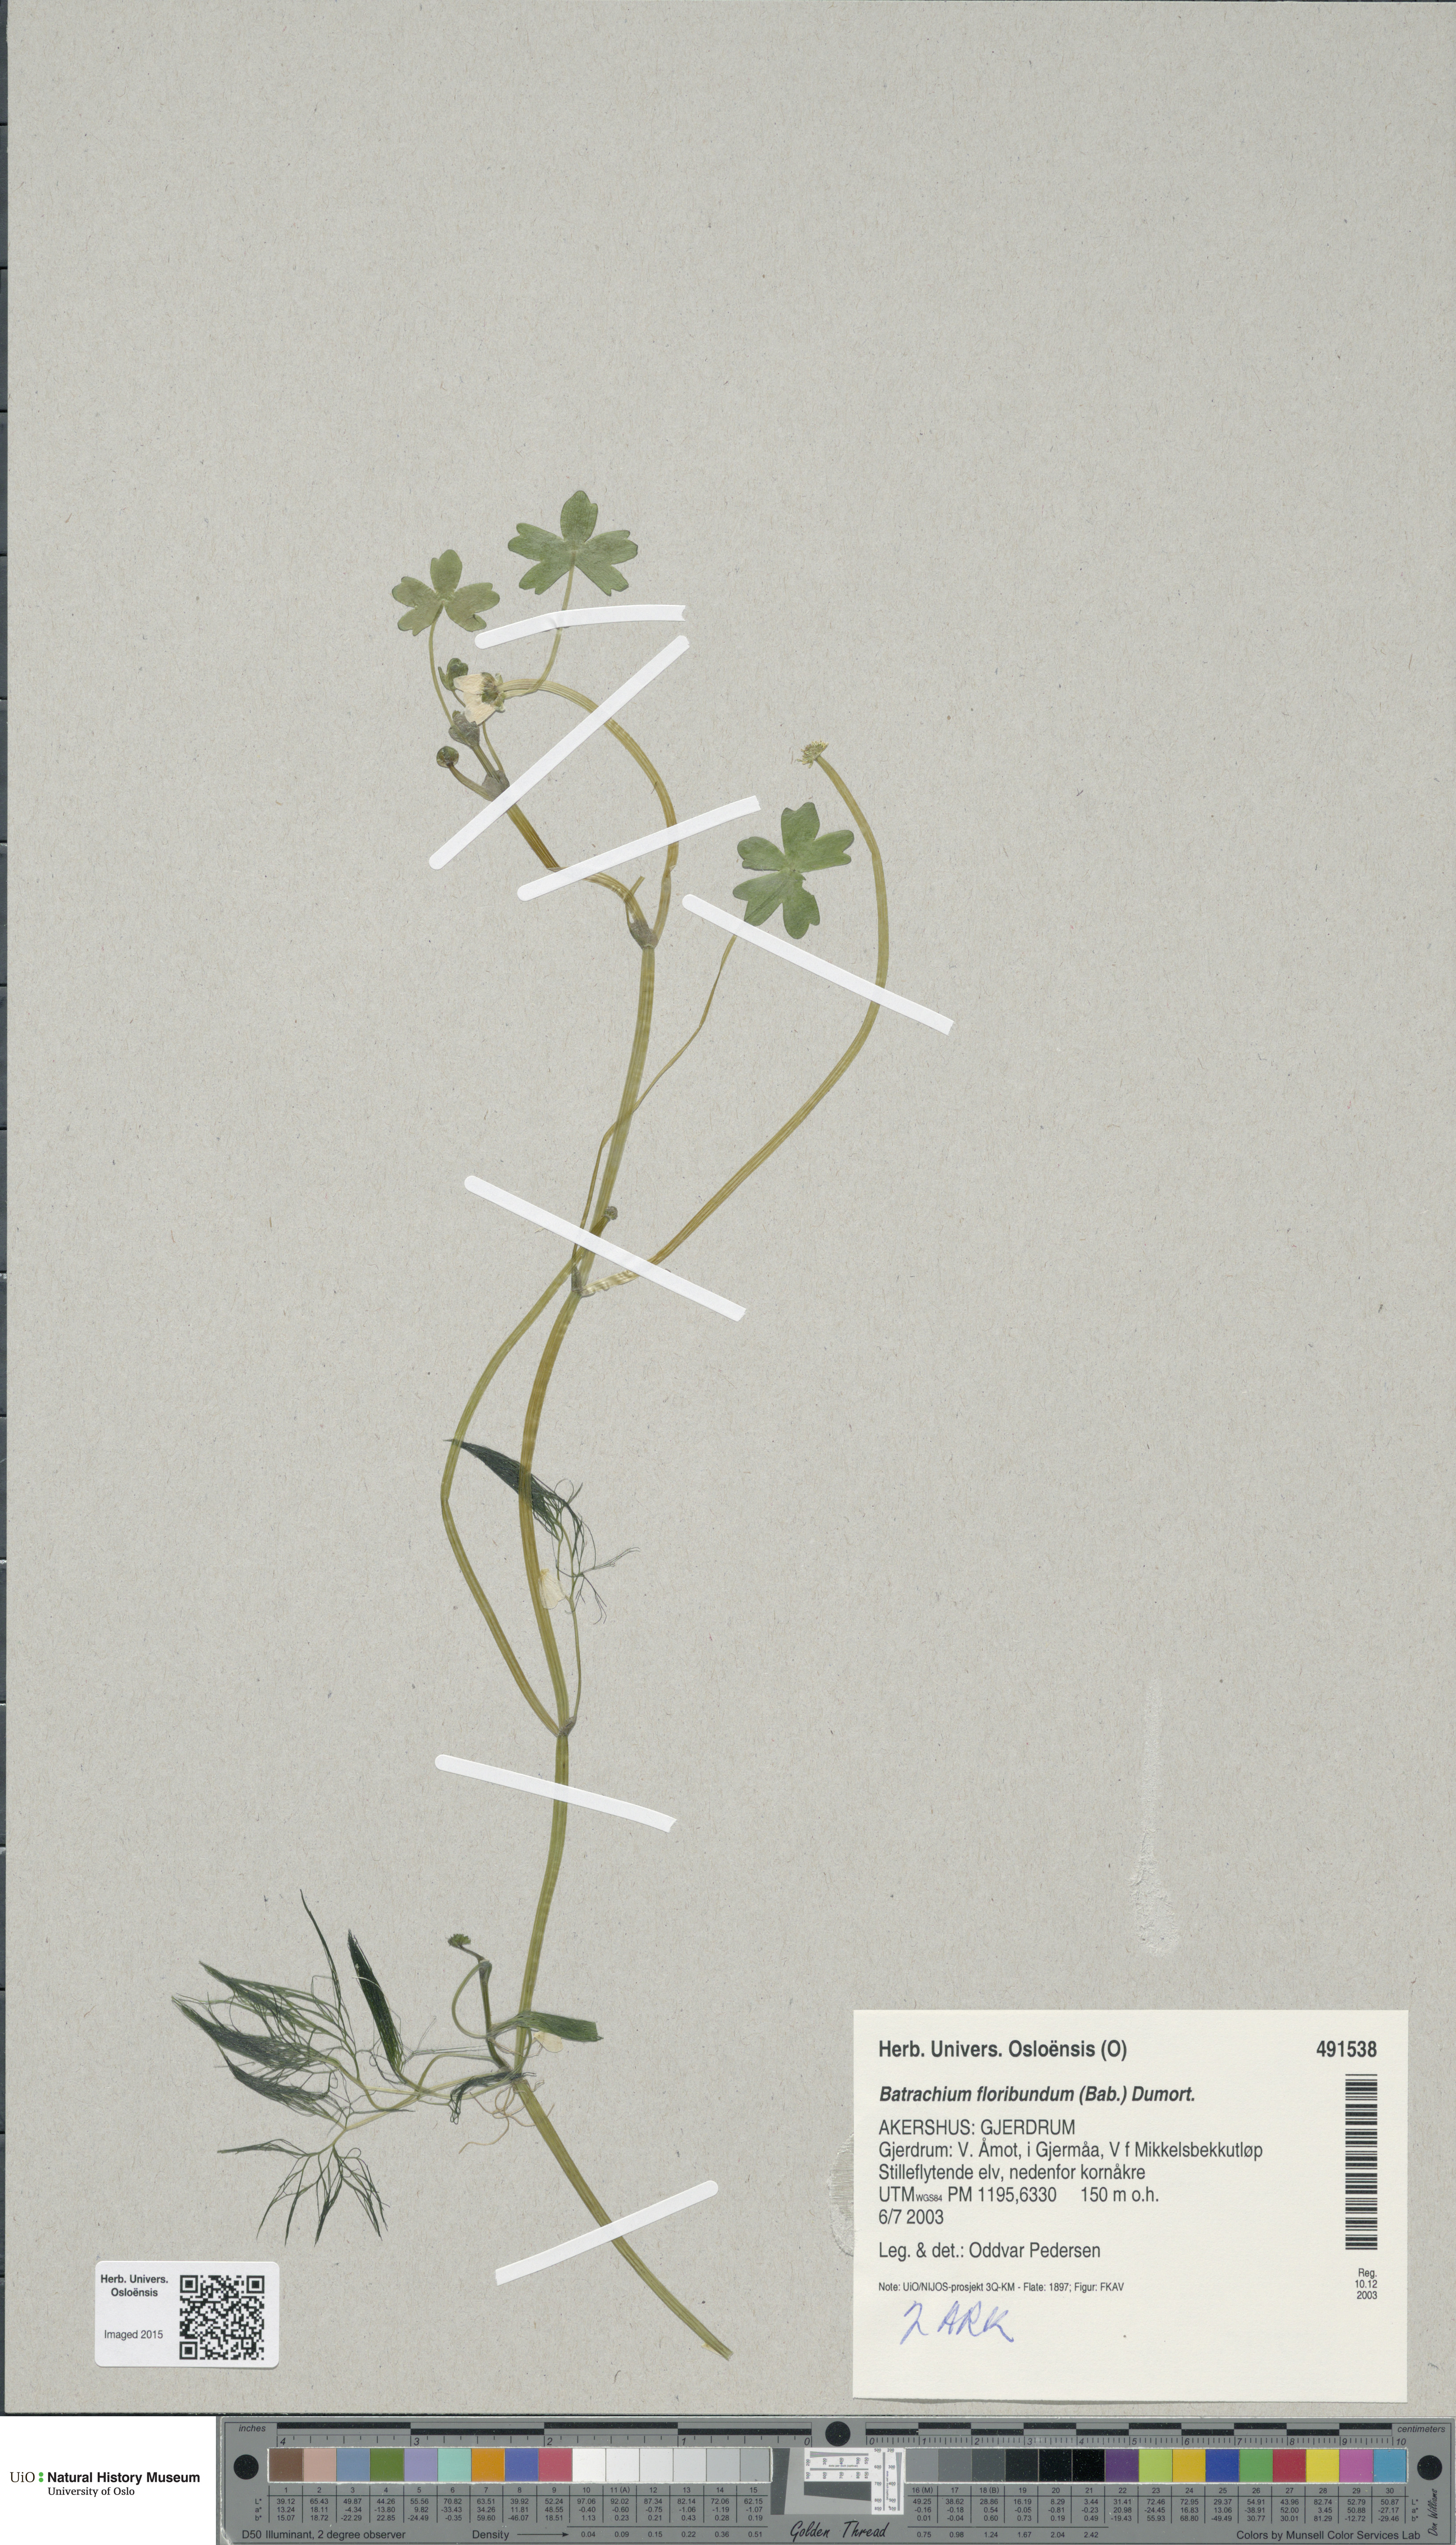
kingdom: Plantae
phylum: Tracheophyta
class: Magnoliopsida
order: Ranunculales
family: Ranunculaceae
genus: Ranunculus
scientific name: Ranunculus peltatus
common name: Pond water-crowfoot
